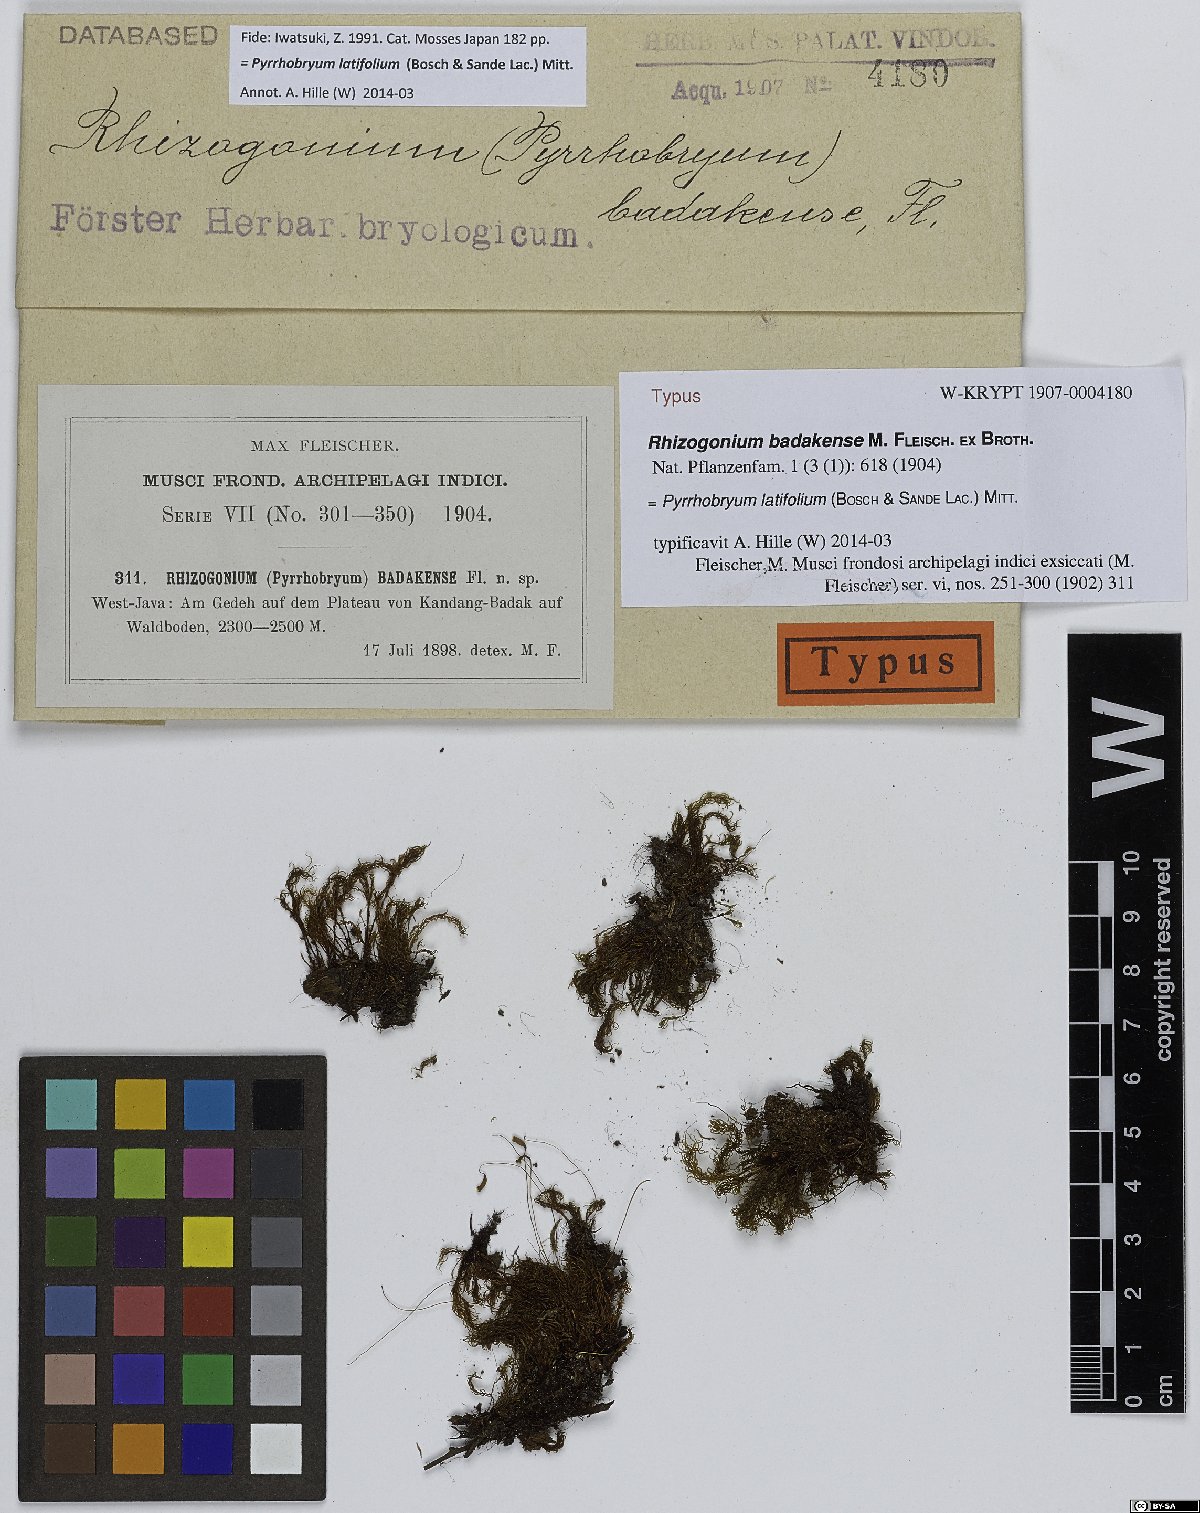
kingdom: Plantae
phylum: Bryophyta
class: Bryopsida
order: Rhizogoniales
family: Calomniaceae
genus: Pyrrhobryum
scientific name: Pyrrhobryum latifolium
